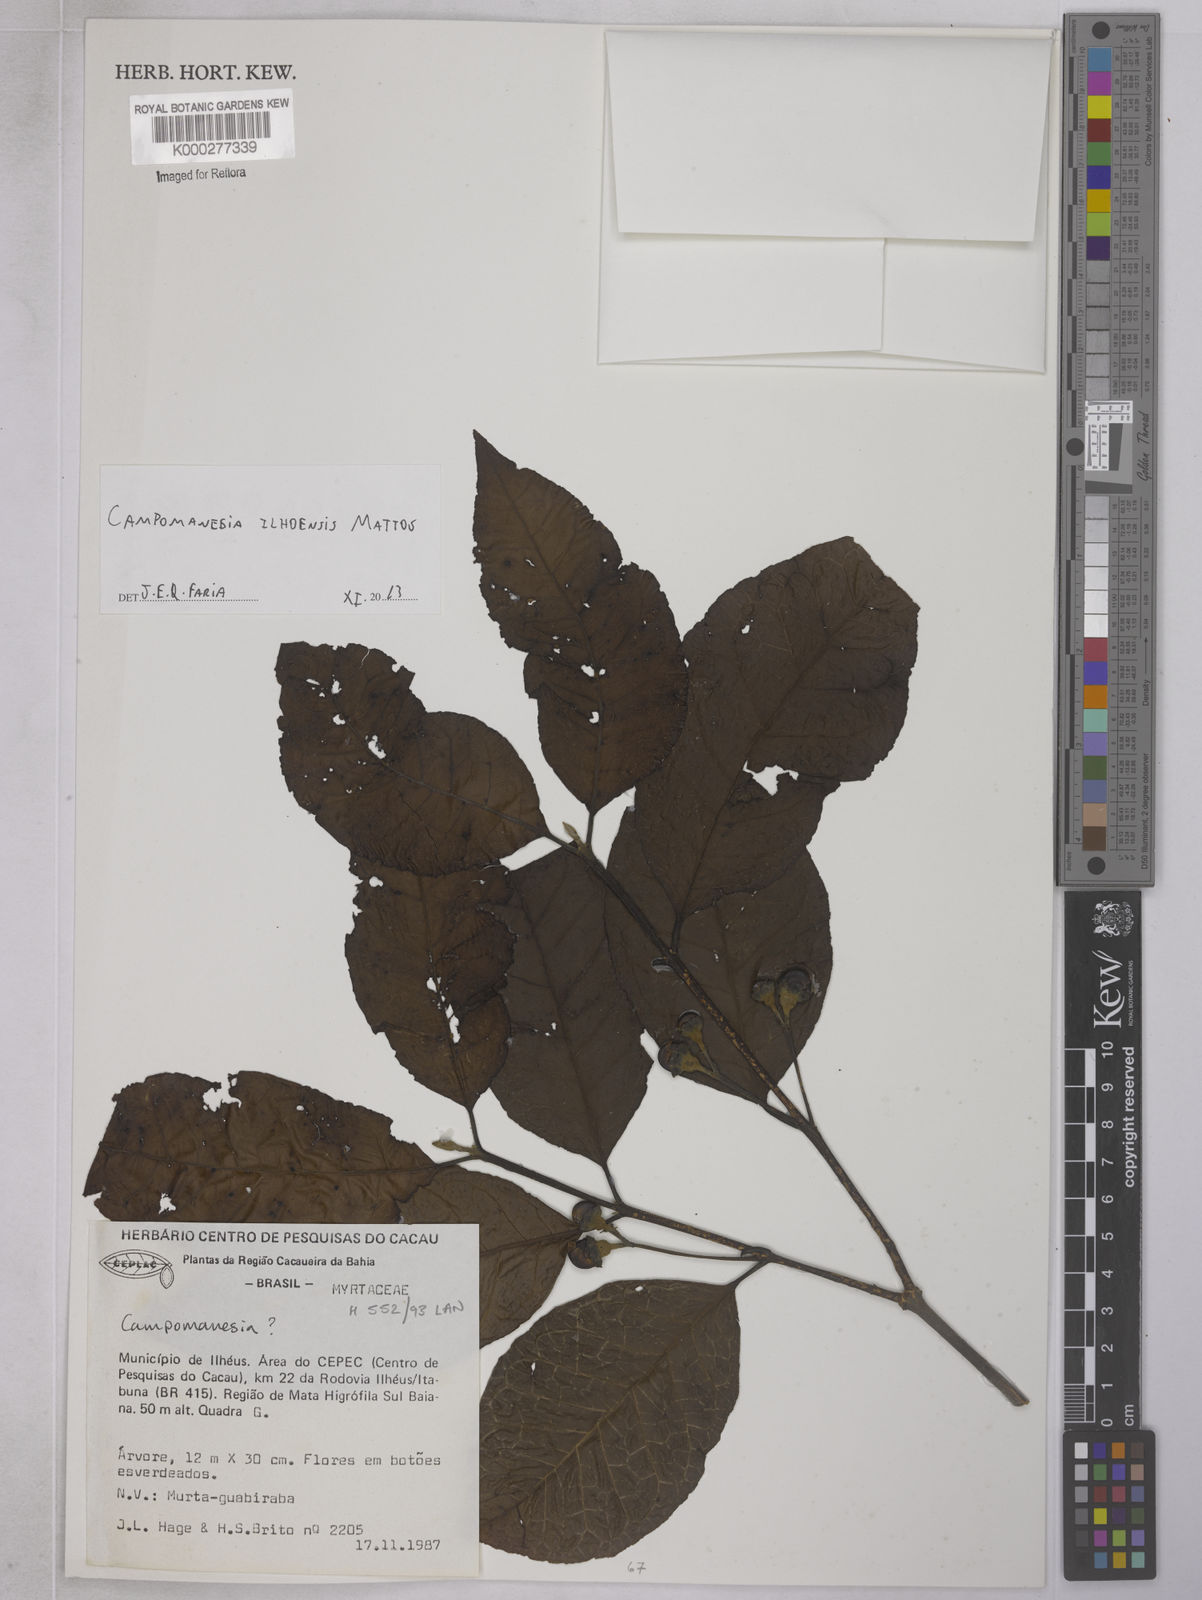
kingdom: Plantae
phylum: Tracheophyta
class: Magnoliopsida
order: Myrtales
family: Myrtaceae
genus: Campomanesia
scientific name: Campomanesia ilhoensis
